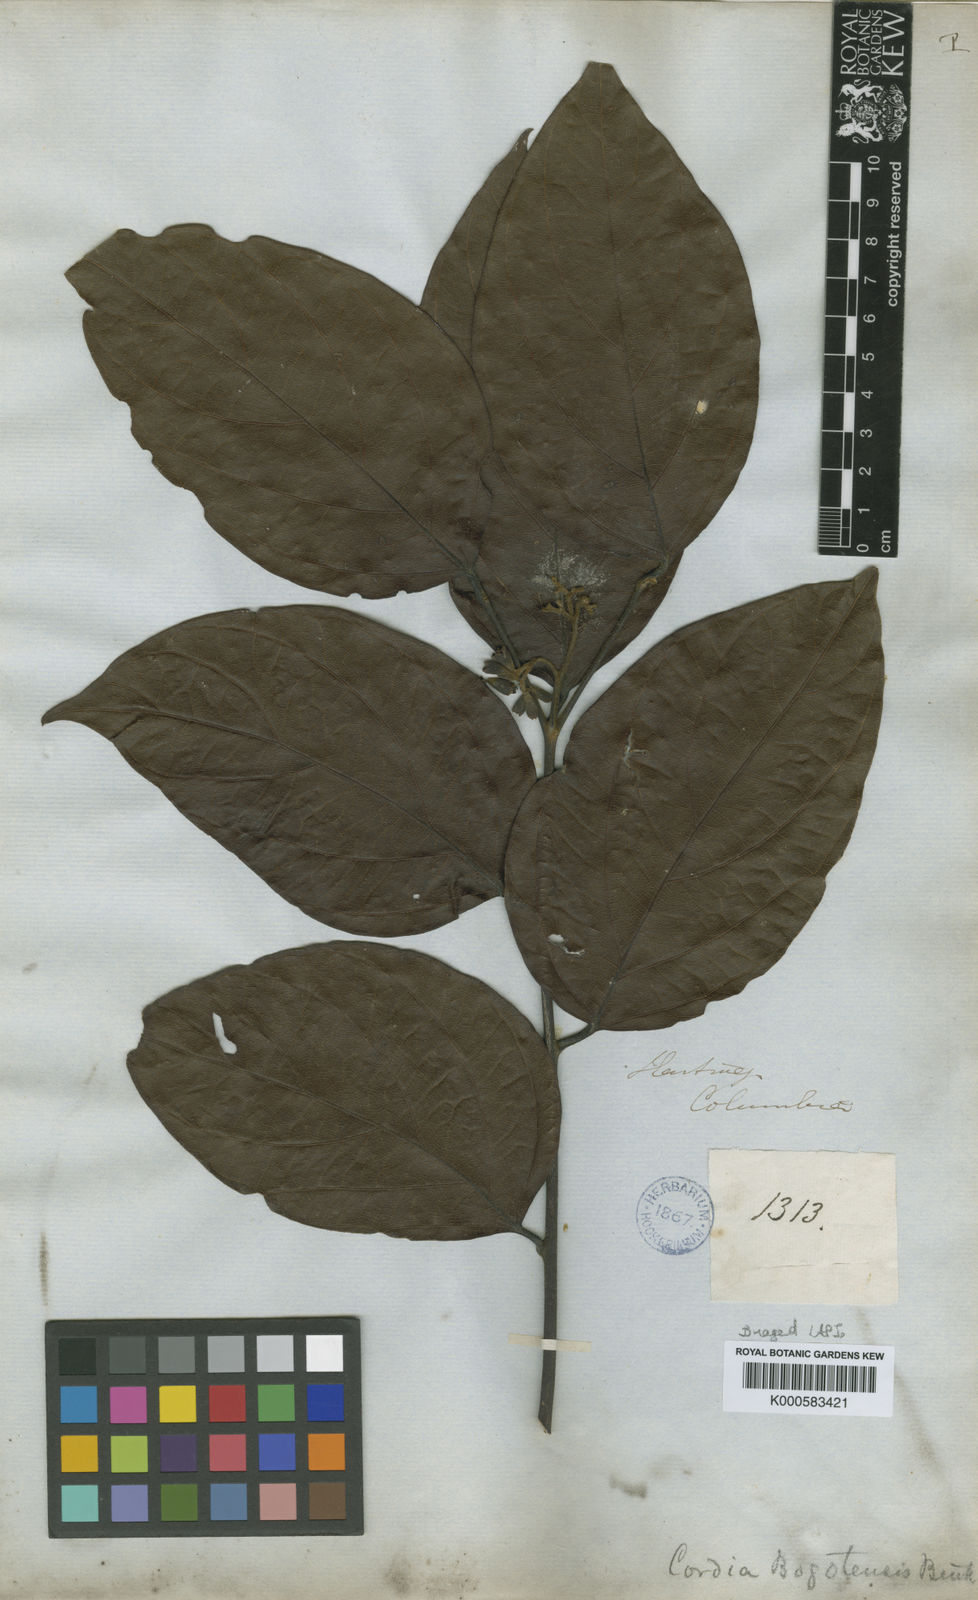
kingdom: Plantae
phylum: Tracheophyta
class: Magnoliopsida
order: Boraginales
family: Cordiaceae
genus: Cordia
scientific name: Cordia bogotensis
